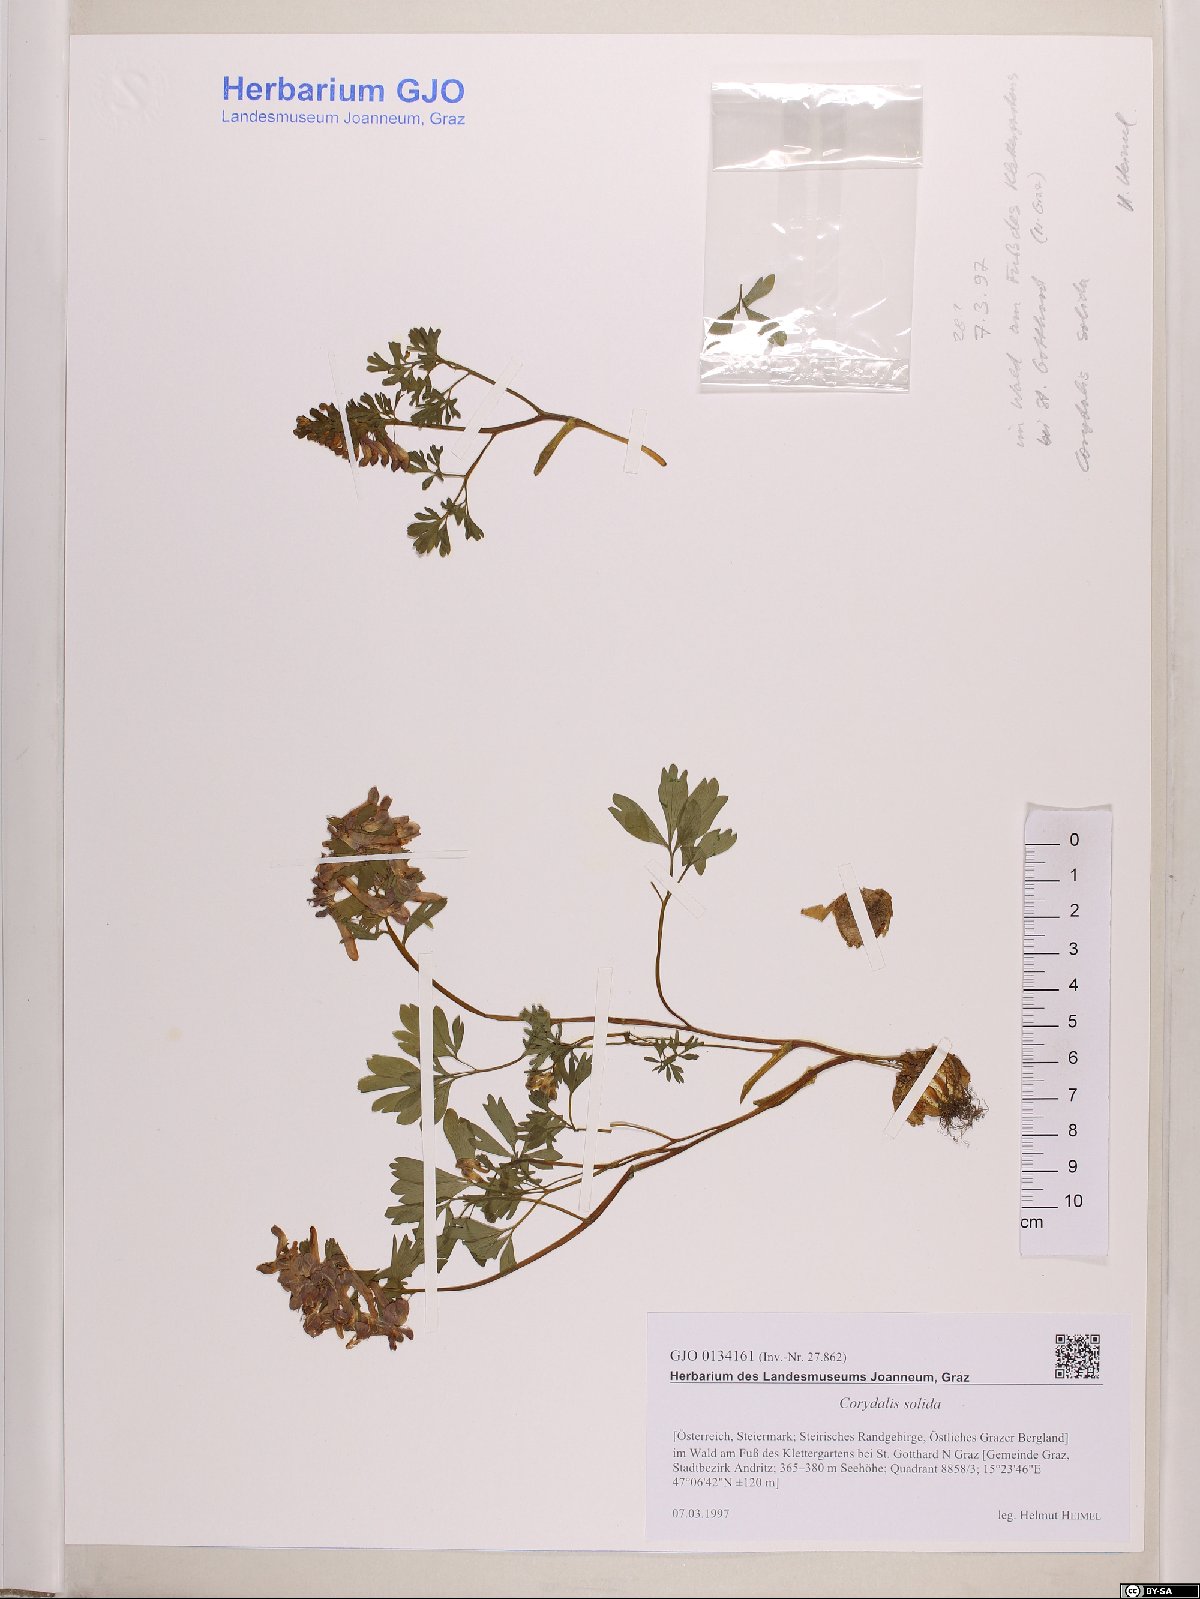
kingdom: Plantae
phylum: Tracheophyta
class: Magnoliopsida
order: Ranunculales
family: Papaveraceae
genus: Corydalis
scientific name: Corydalis solida
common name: Bird-in-a-bush
